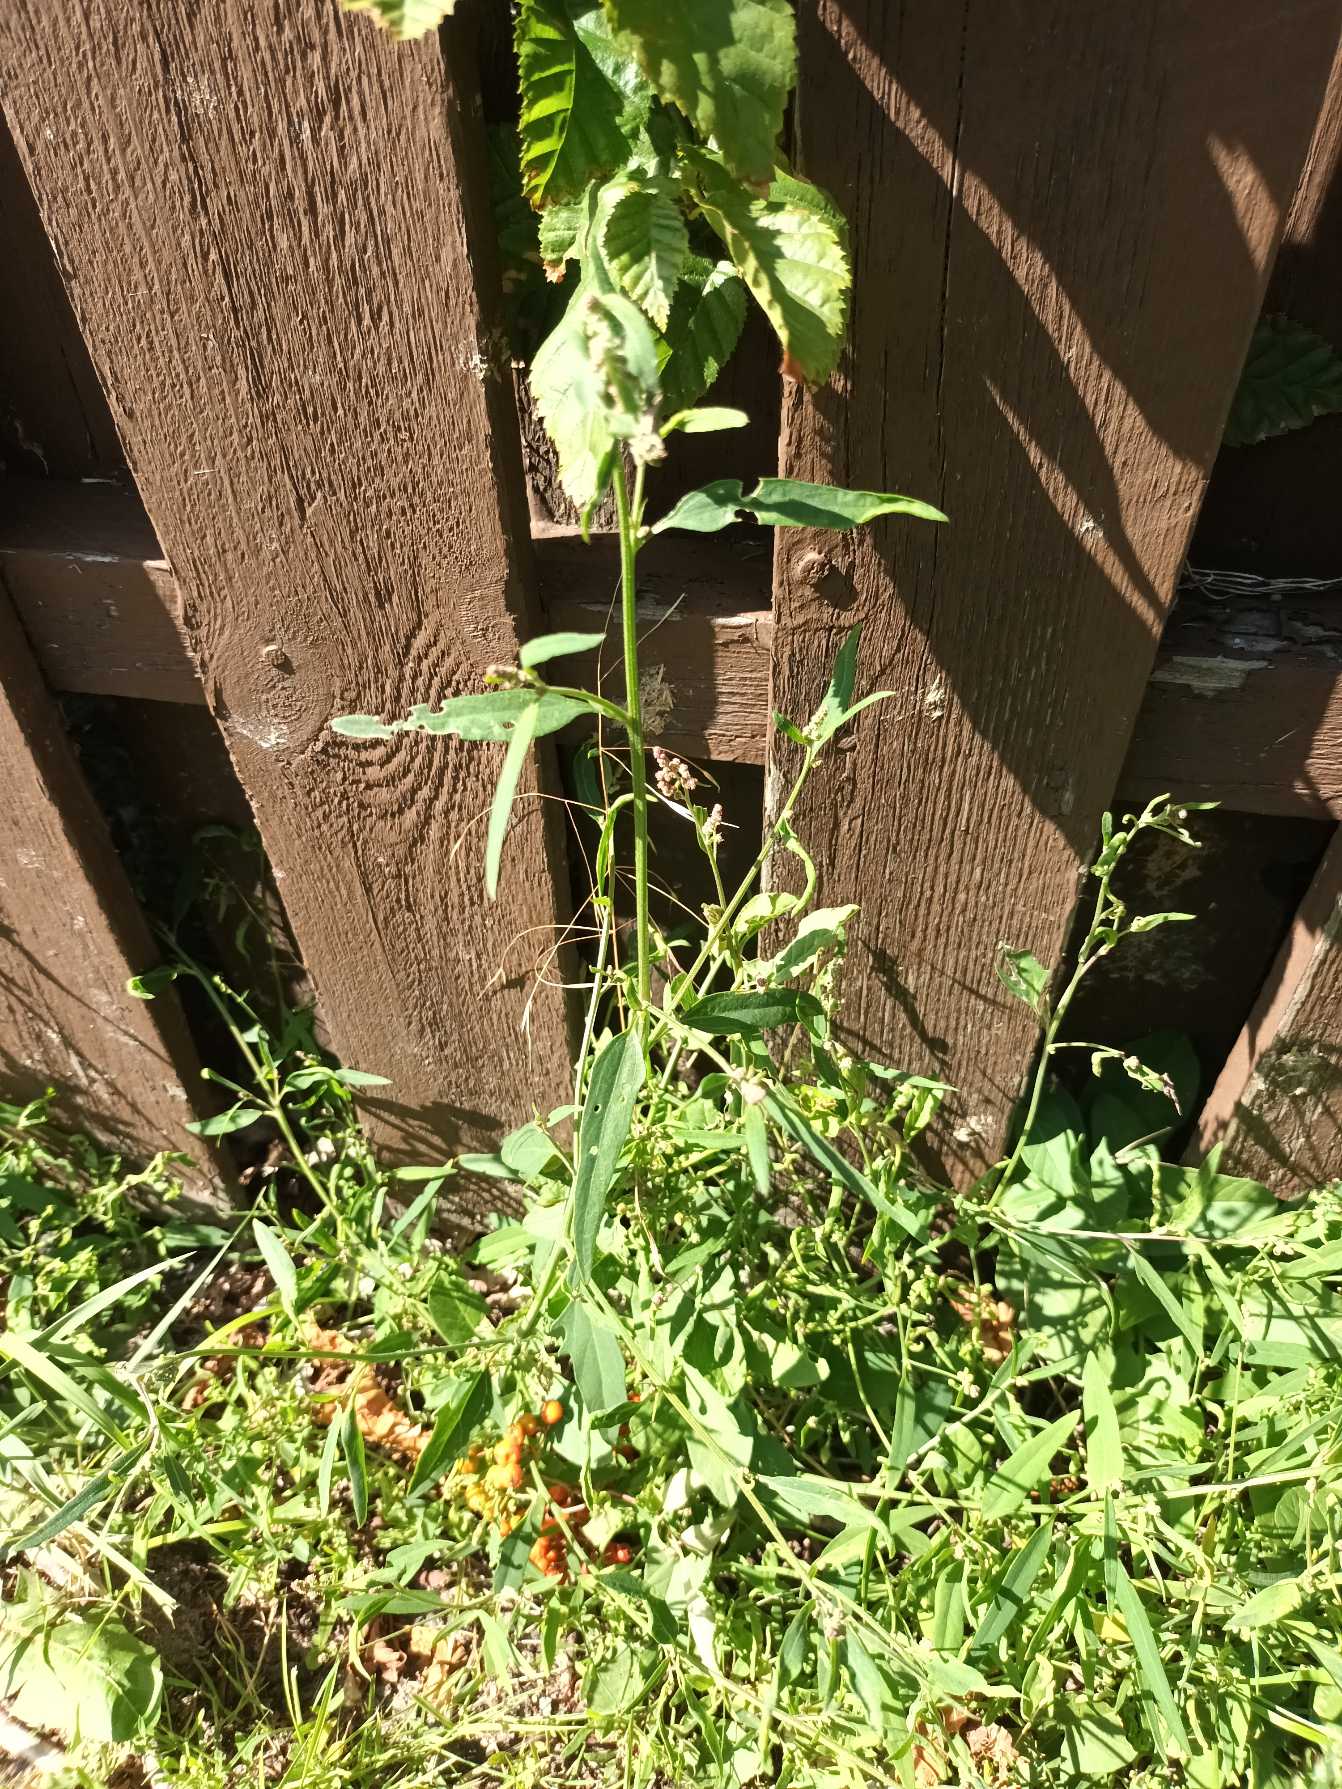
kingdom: Plantae
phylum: Tracheophyta
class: Magnoliopsida
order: Caryophyllales
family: Amaranthaceae
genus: Atriplex
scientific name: Atriplex patula
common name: Svine-mælde
